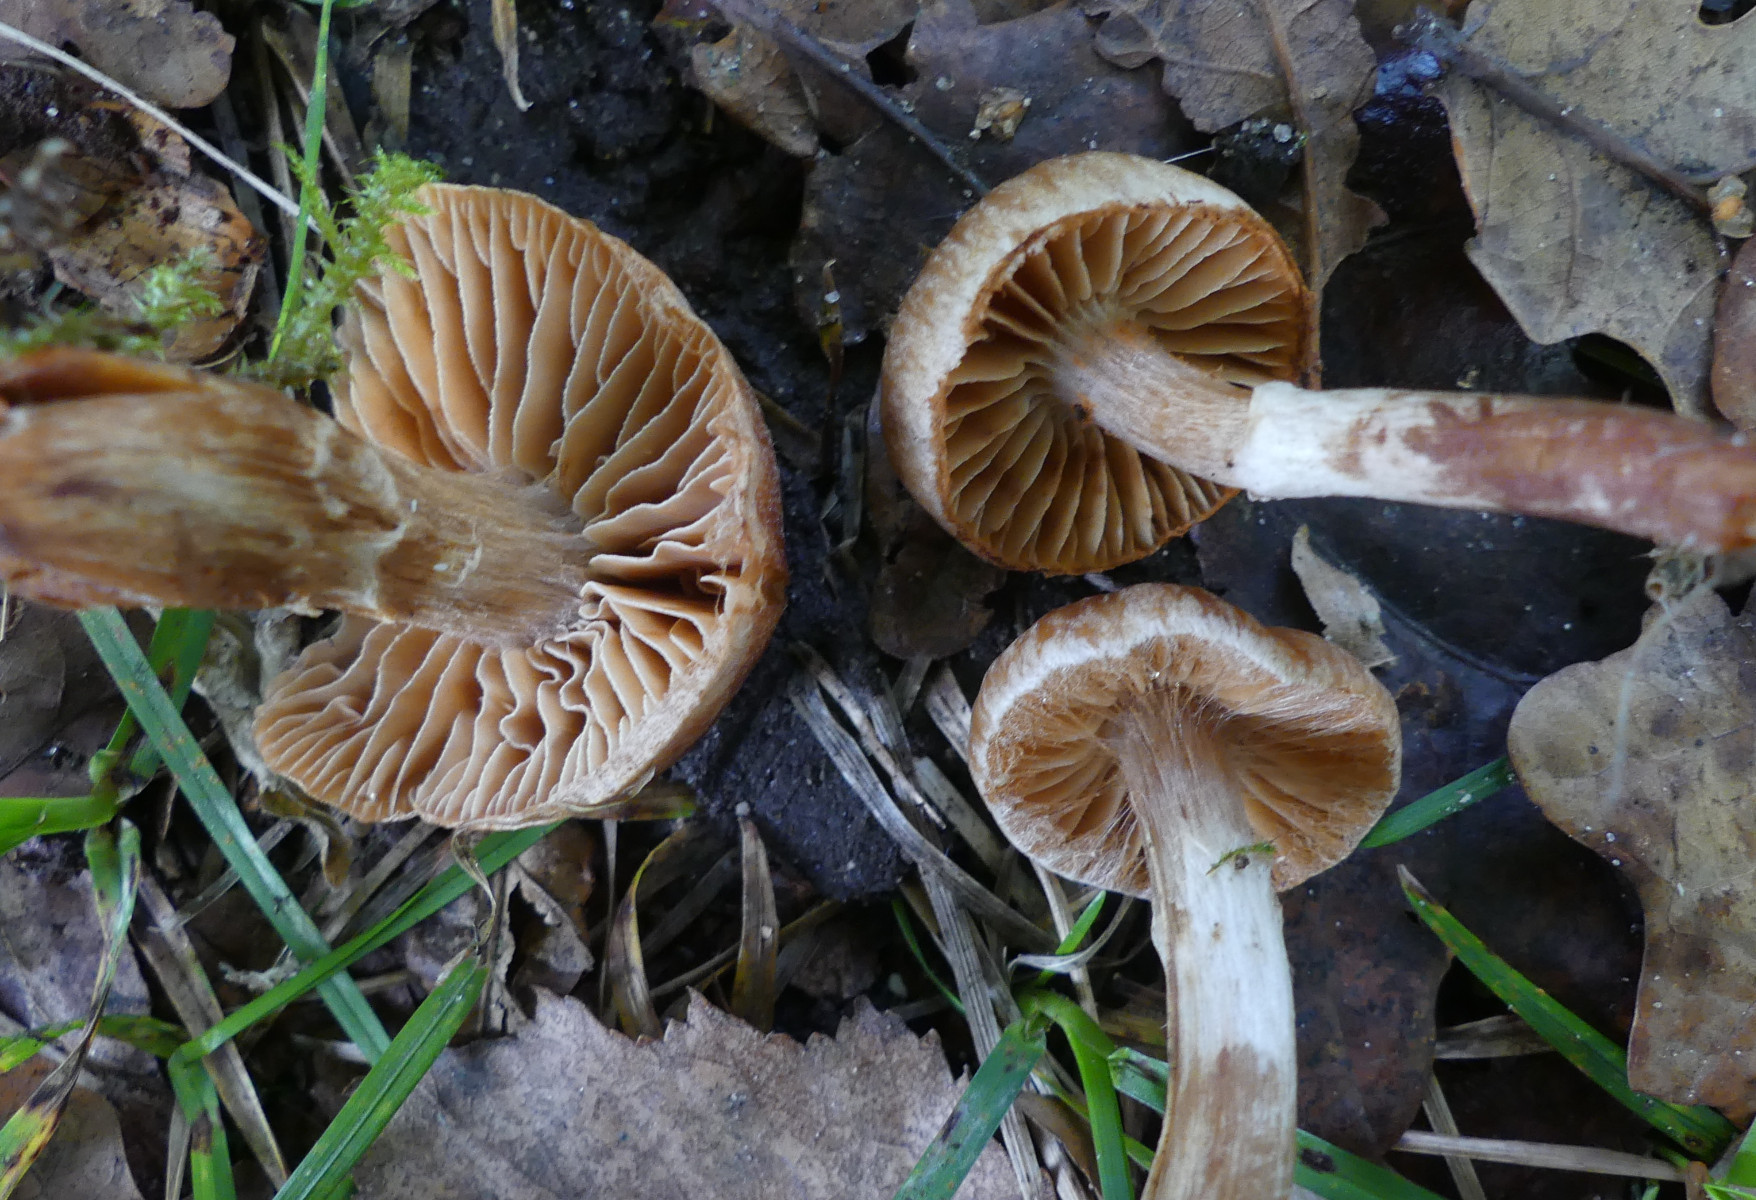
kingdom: Fungi
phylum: Basidiomycota
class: Agaricomycetes
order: Agaricales
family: Cortinariaceae
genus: Cortinarius
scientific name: Cortinarius hinnuleus
